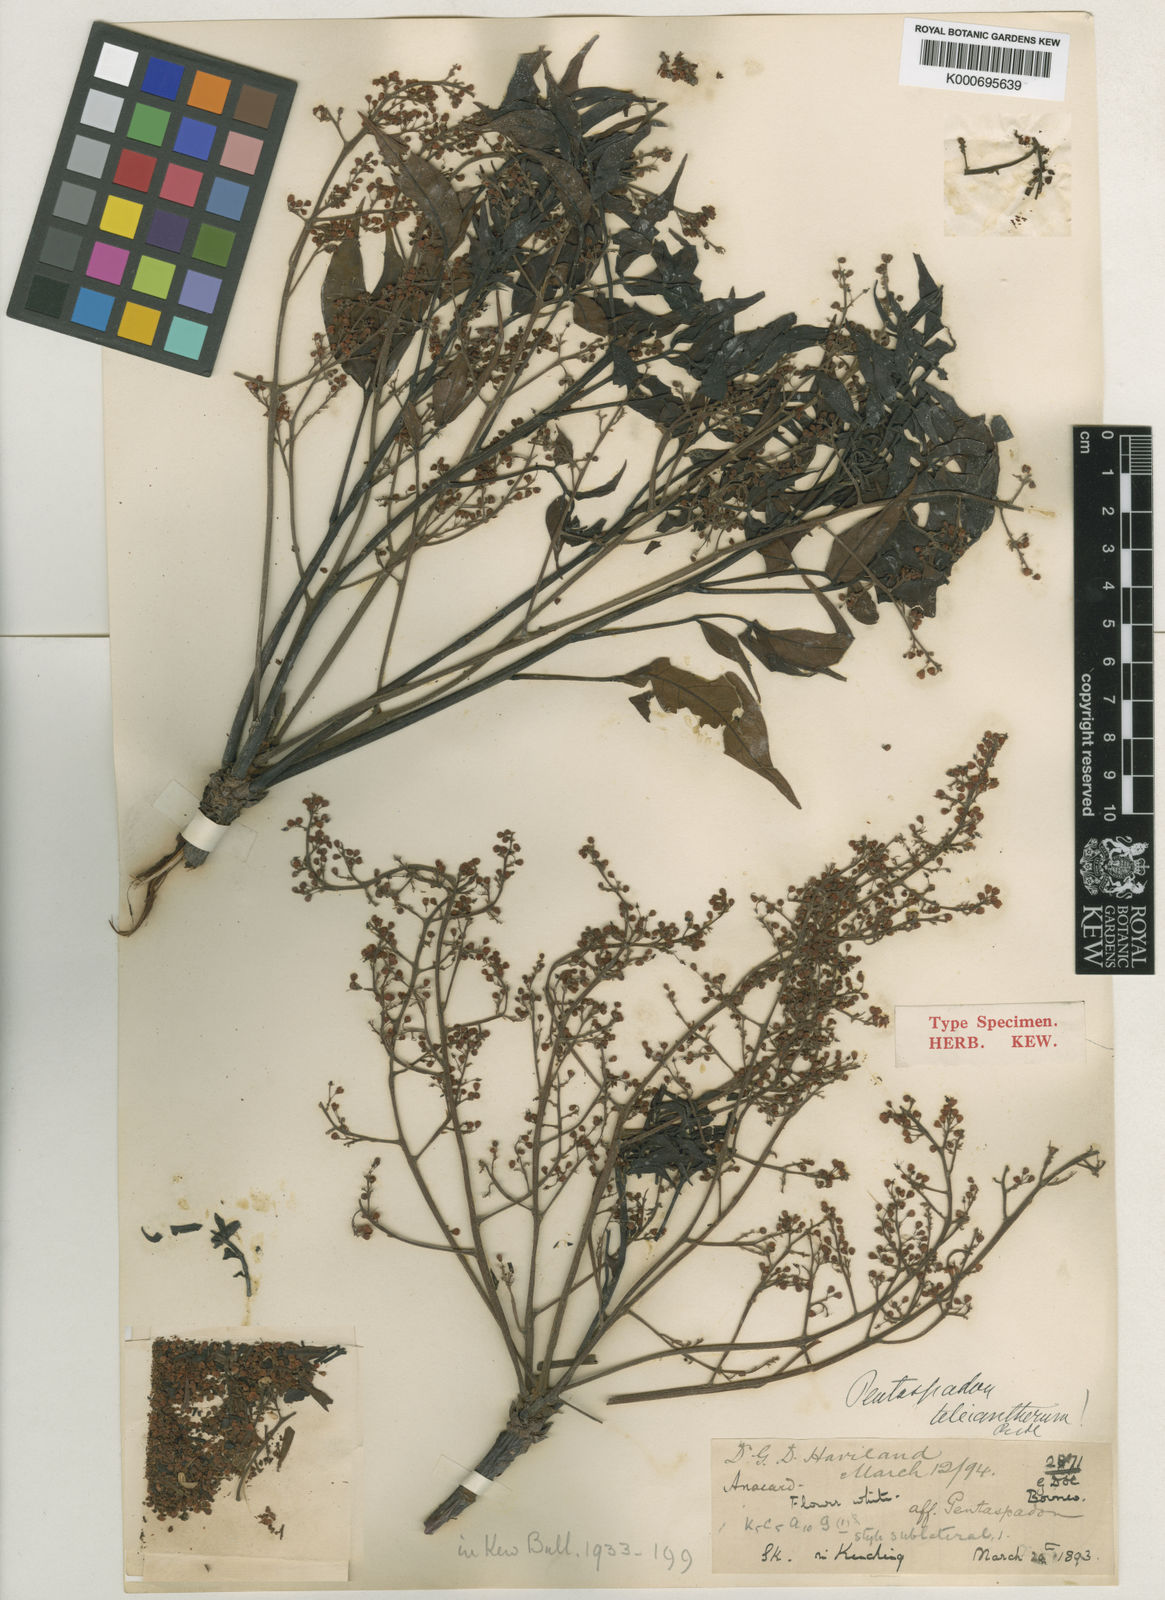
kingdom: Plantae
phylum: Tracheophyta
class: Magnoliopsida
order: Sapindales
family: Anacardiaceae
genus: Spondias
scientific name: Spondias philippinensis
